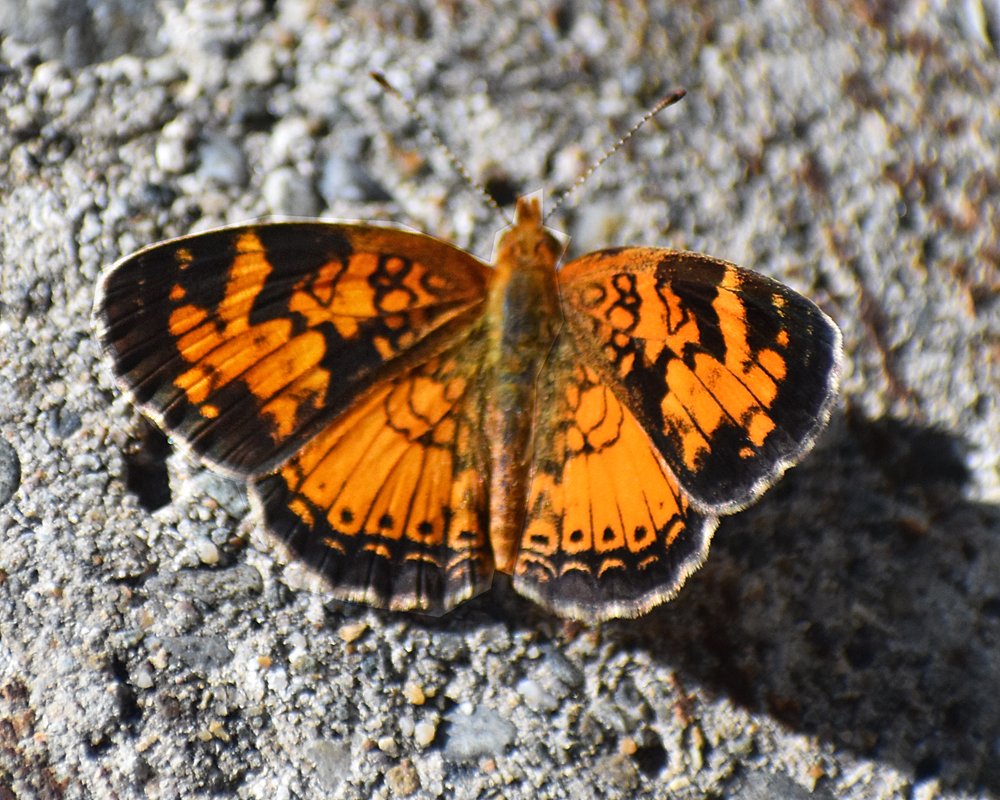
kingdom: Animalia
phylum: Arthropoda
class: Insecta
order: Lepidoptera
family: Nymphalidae
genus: Phyciodes
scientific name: Phyciodes tharos
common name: Northern Crescent
